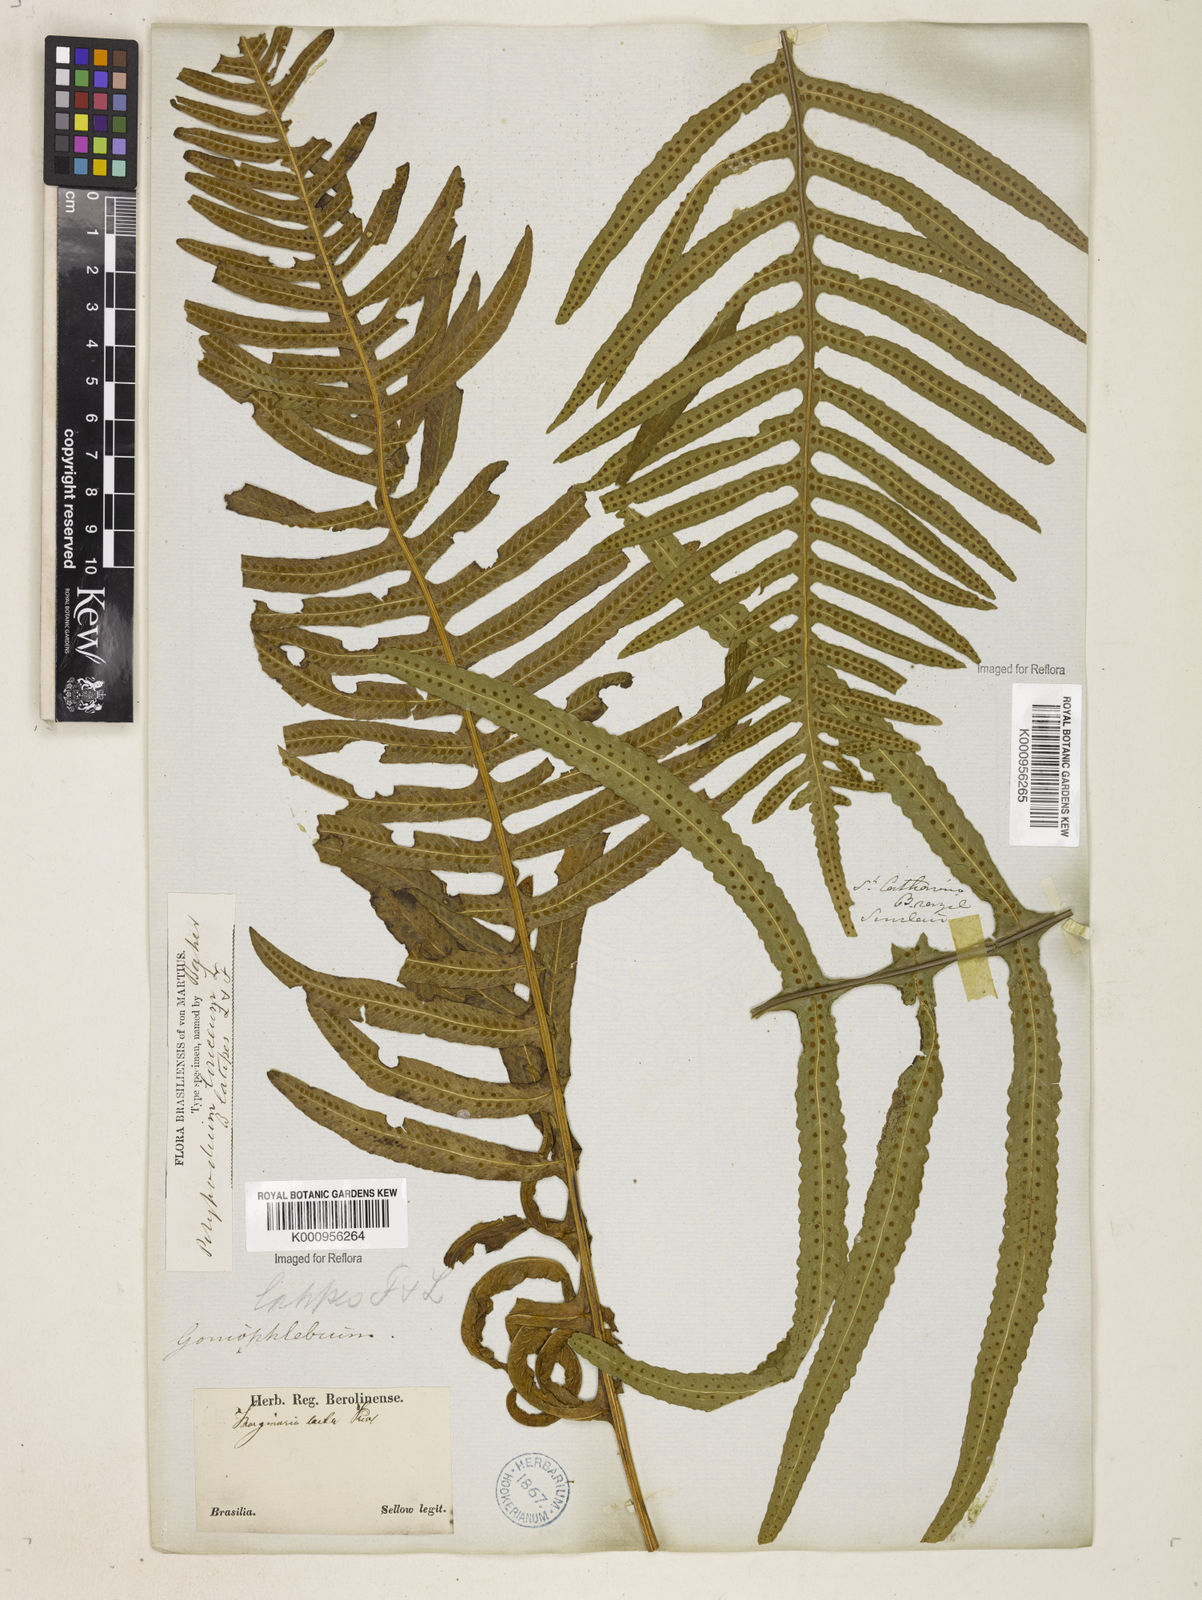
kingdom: Plantae
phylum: Tracheophyta
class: Polypodiopsida
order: Polypodiales
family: Polypodiaceae
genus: Serpocaulon
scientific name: Serpocaulon loriceum
